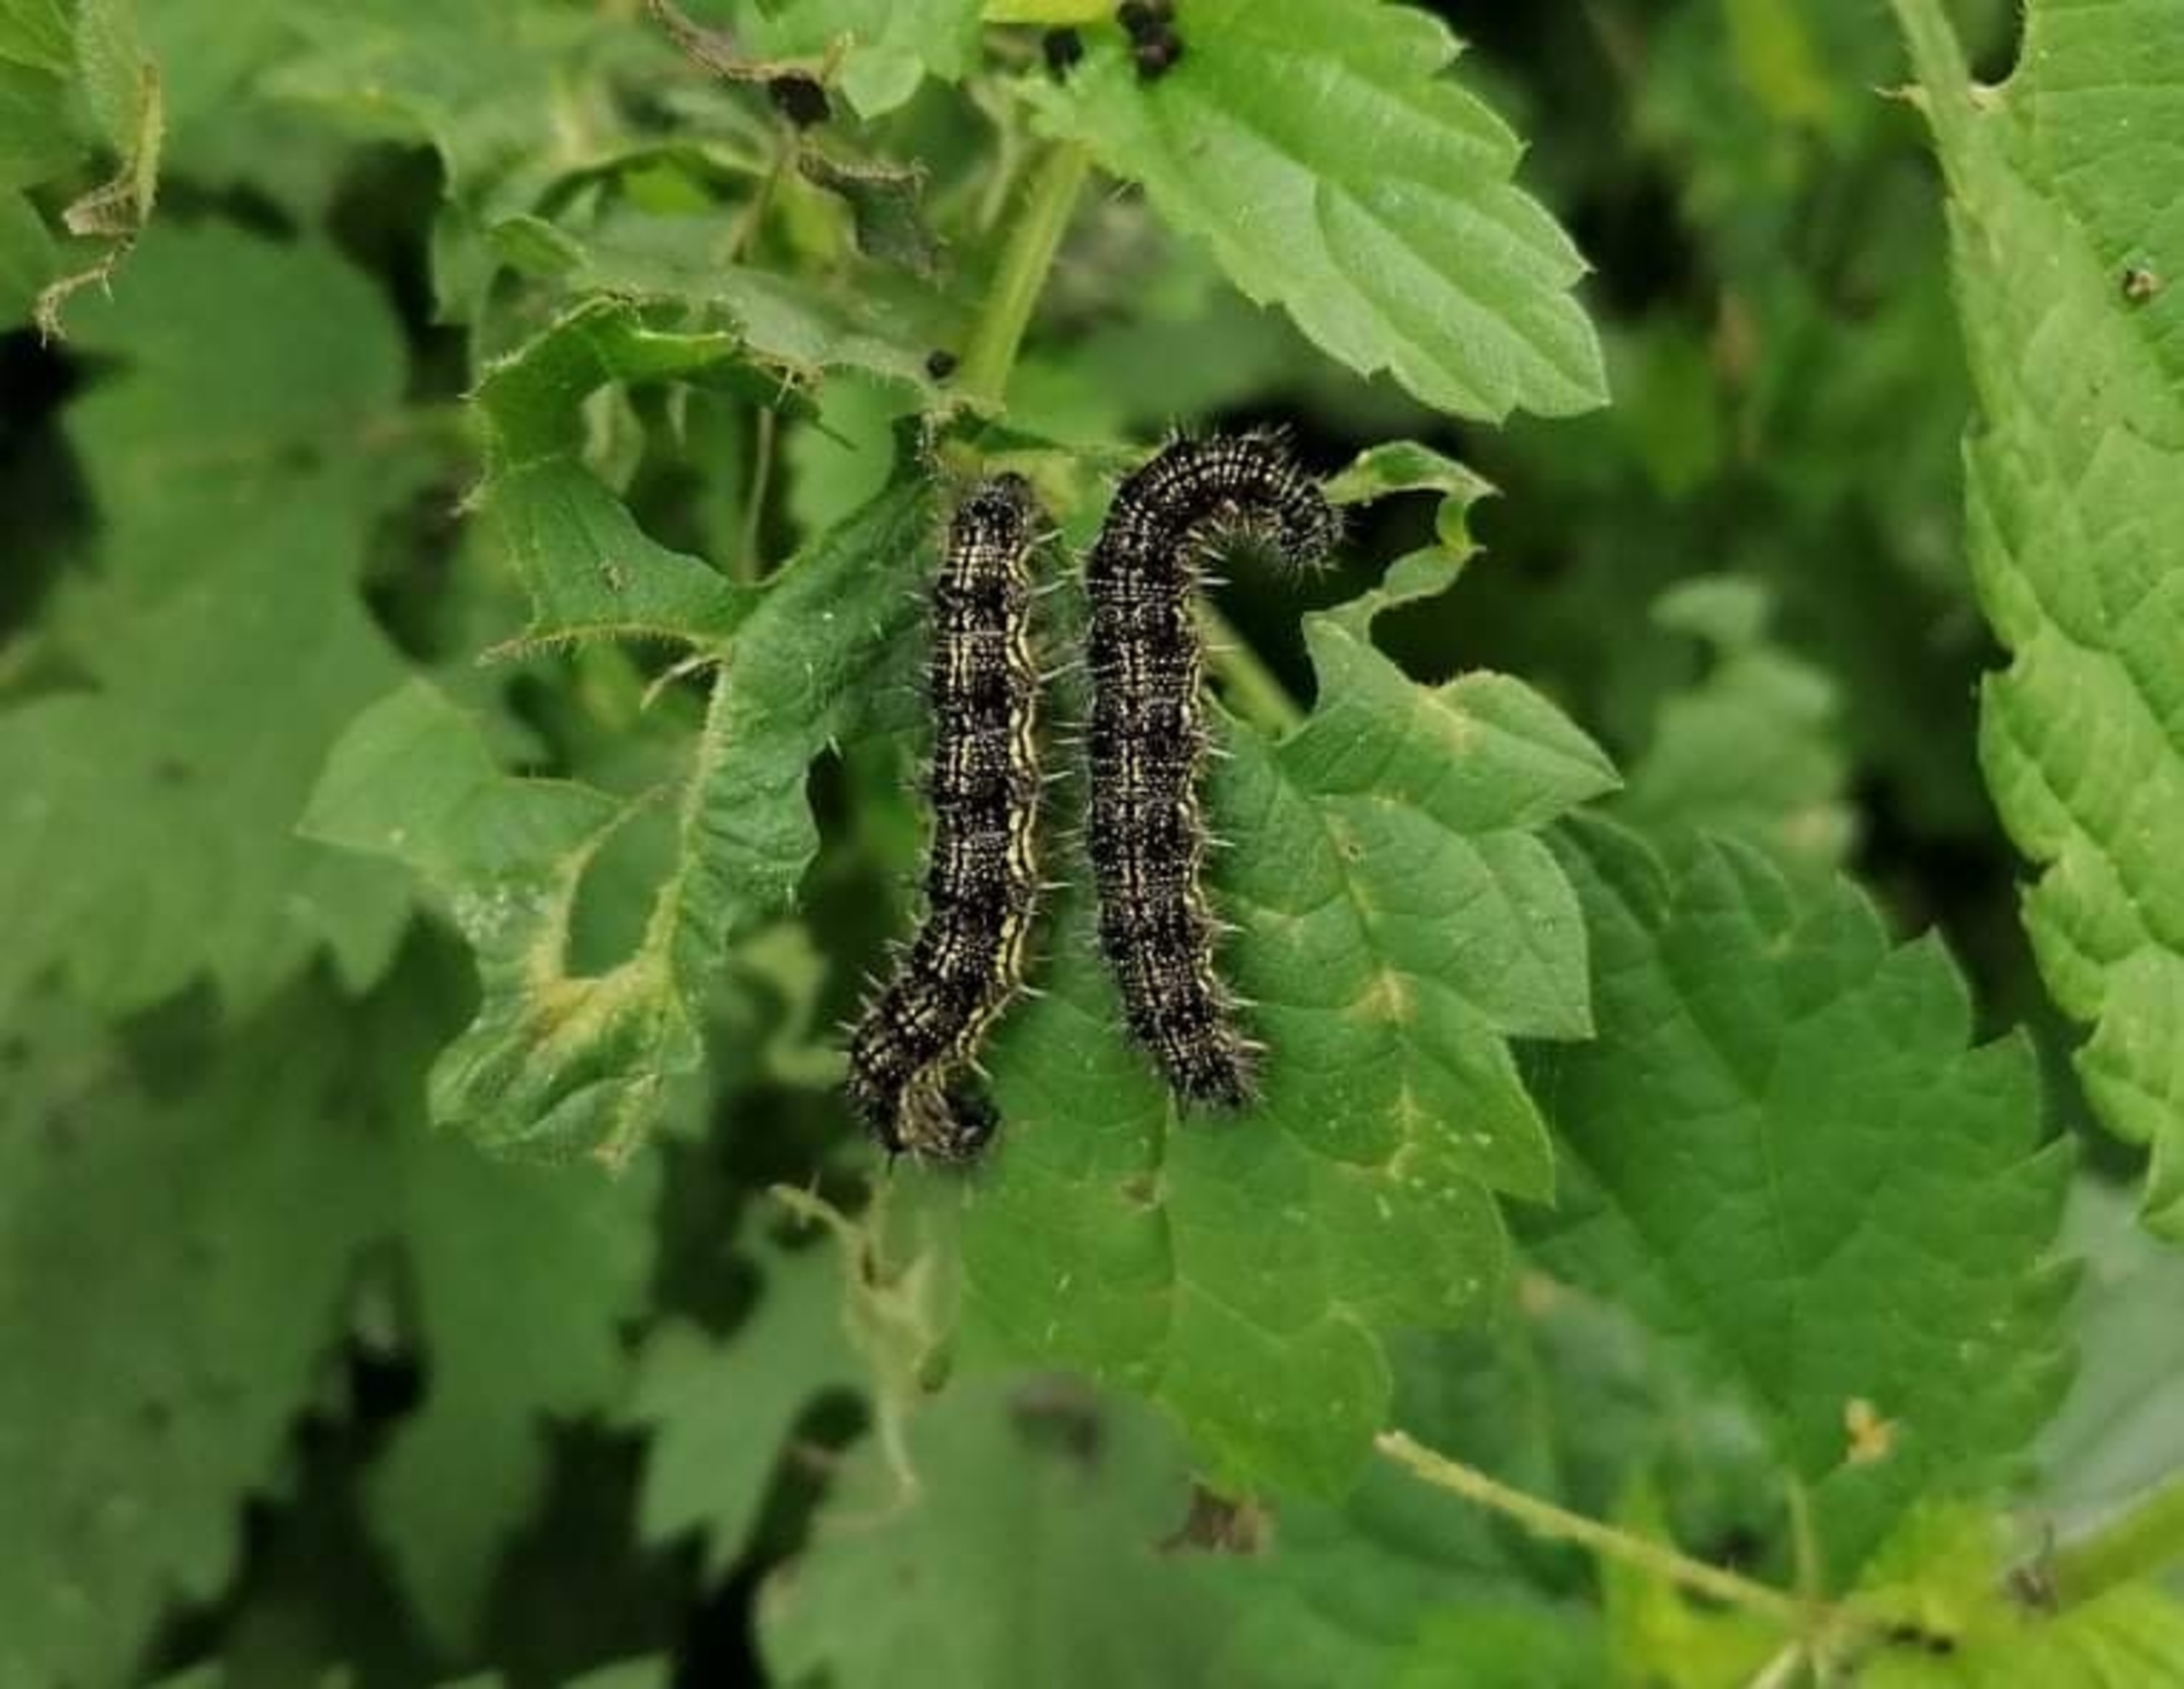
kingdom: Animalia
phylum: Arthropoda
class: Insecta
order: Lepidoptera
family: Nymphalidae
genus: Aglais
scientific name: Aglais urticae
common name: Nældens takvinge
